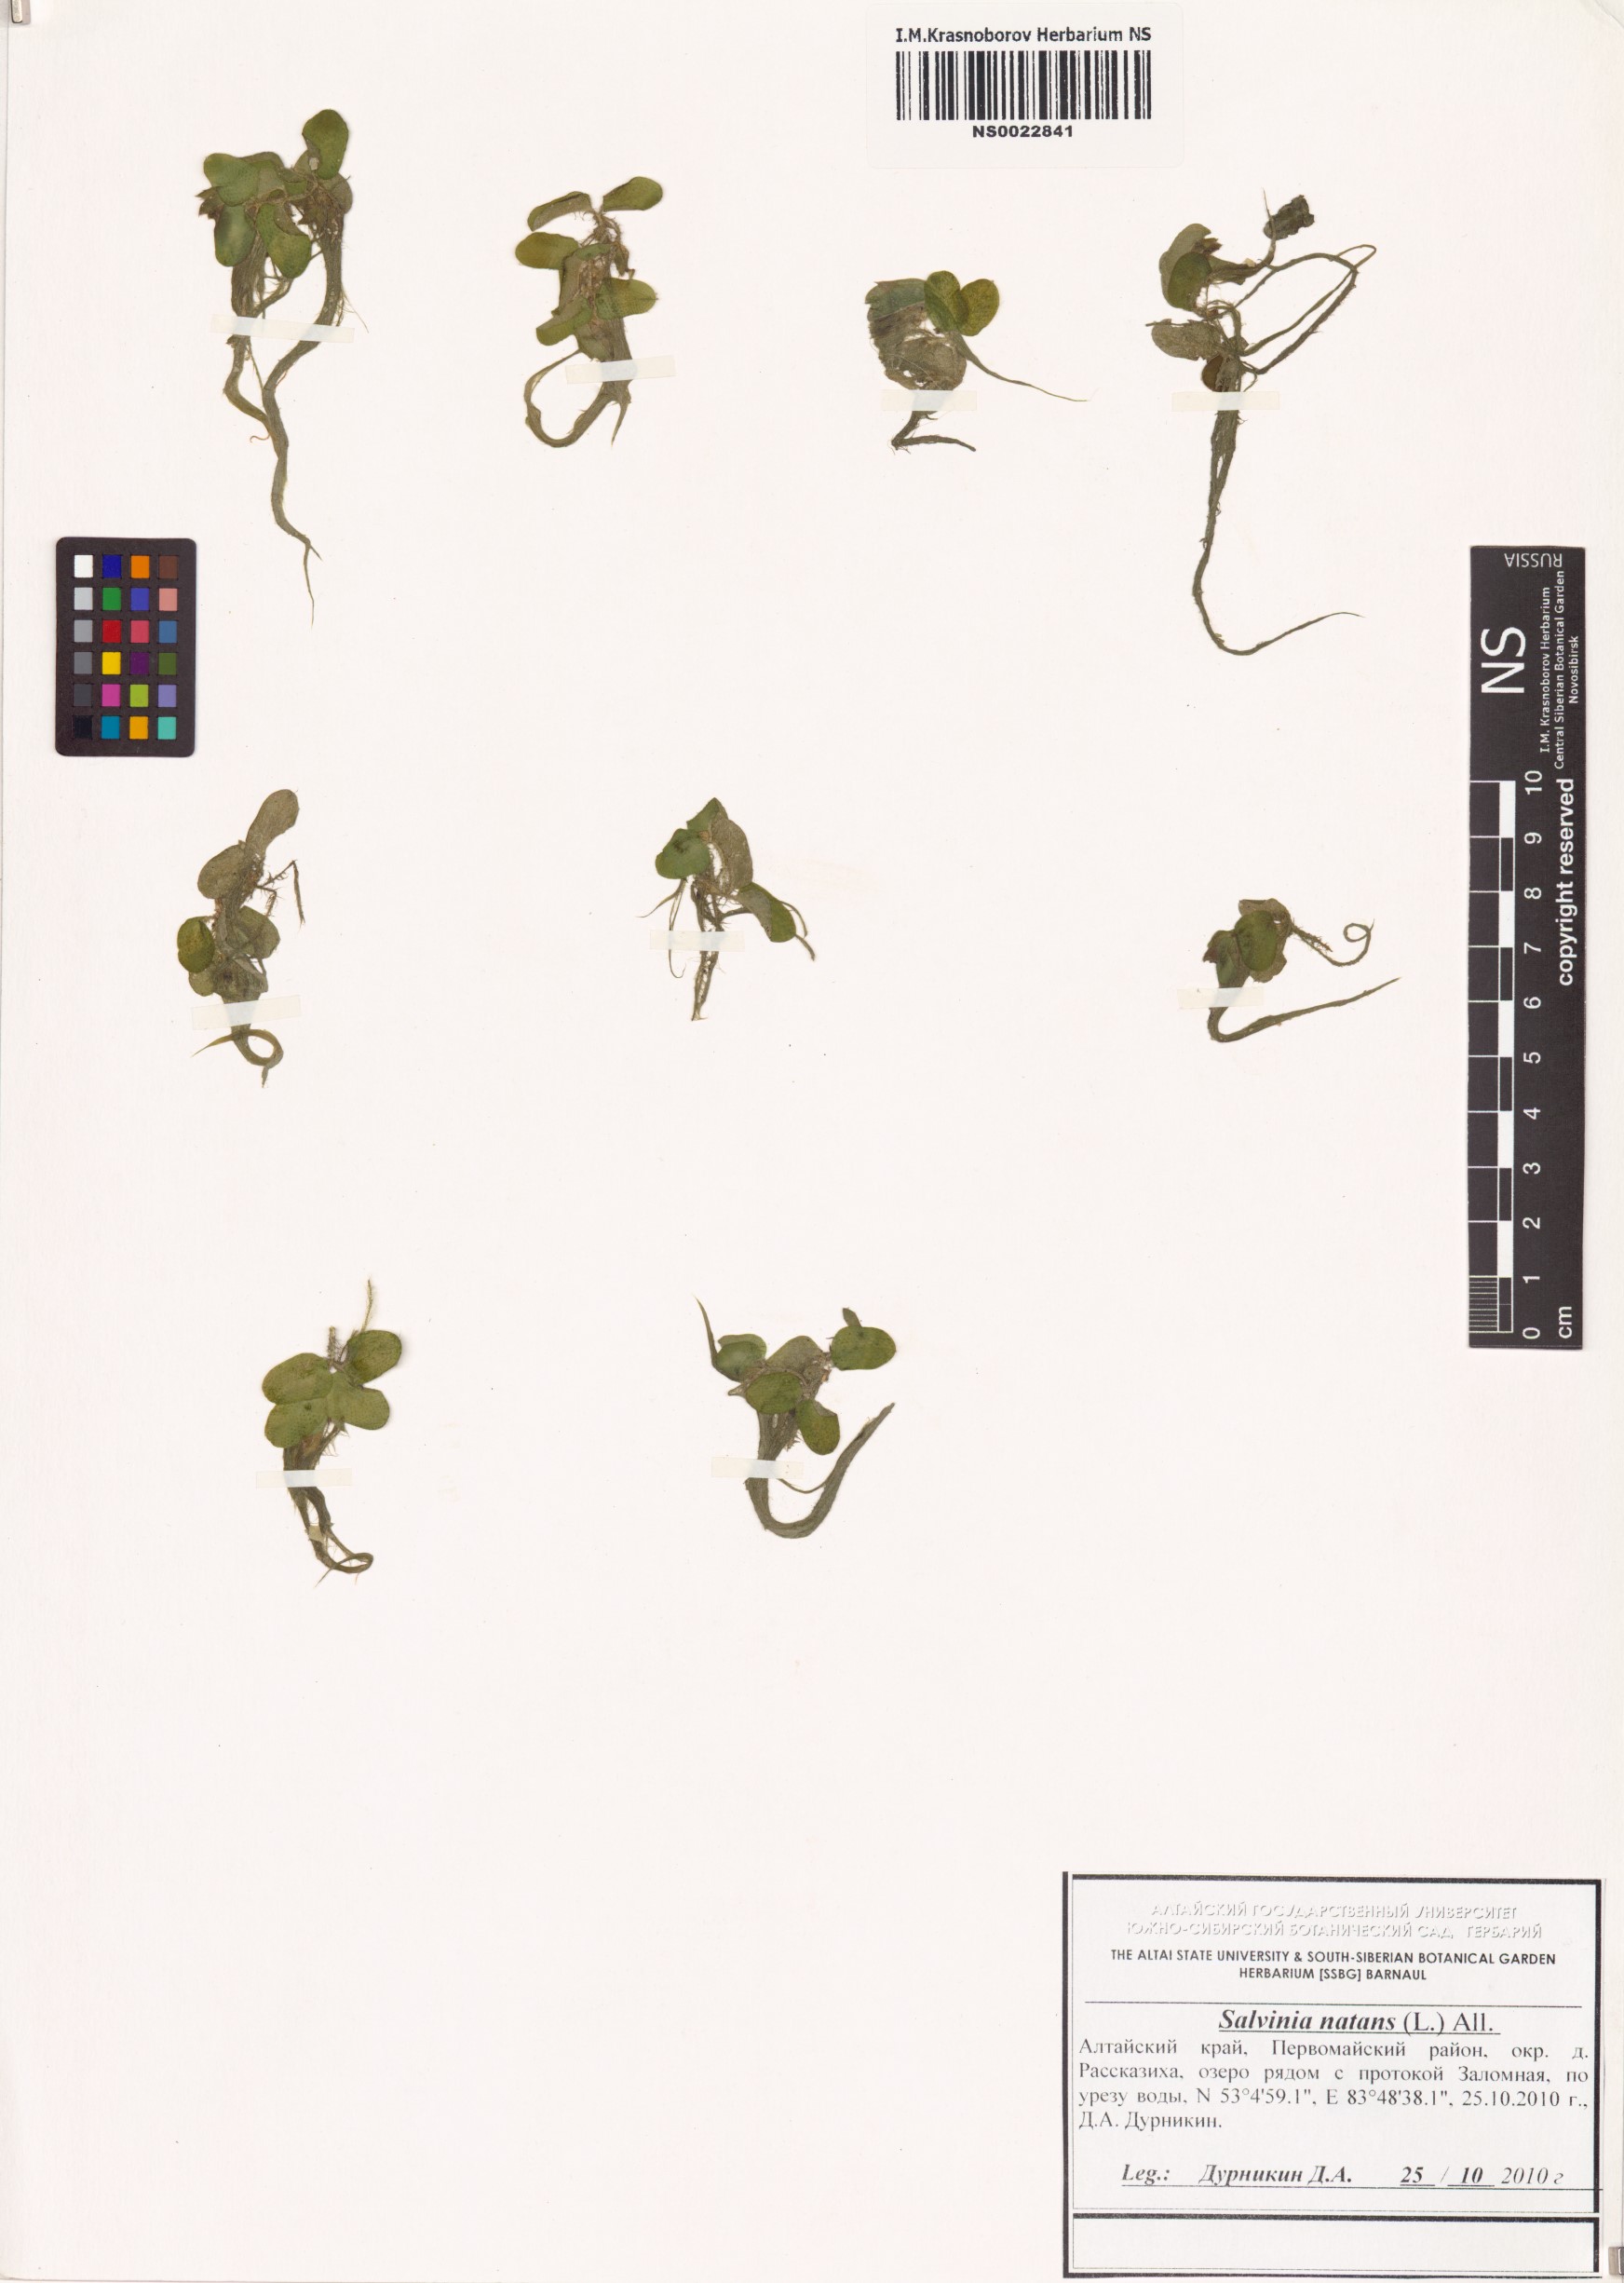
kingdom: Plantae
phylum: Tracheophyta
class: Polypodiopsida
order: Salviniales
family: Salviniaceae
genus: Salvinia
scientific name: Salvinia natans
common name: Floating fern
